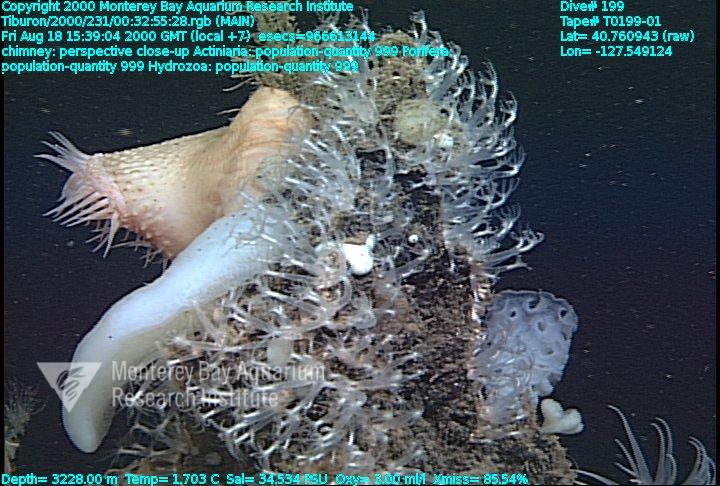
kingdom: Animalia
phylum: Porifera
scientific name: Porifera
